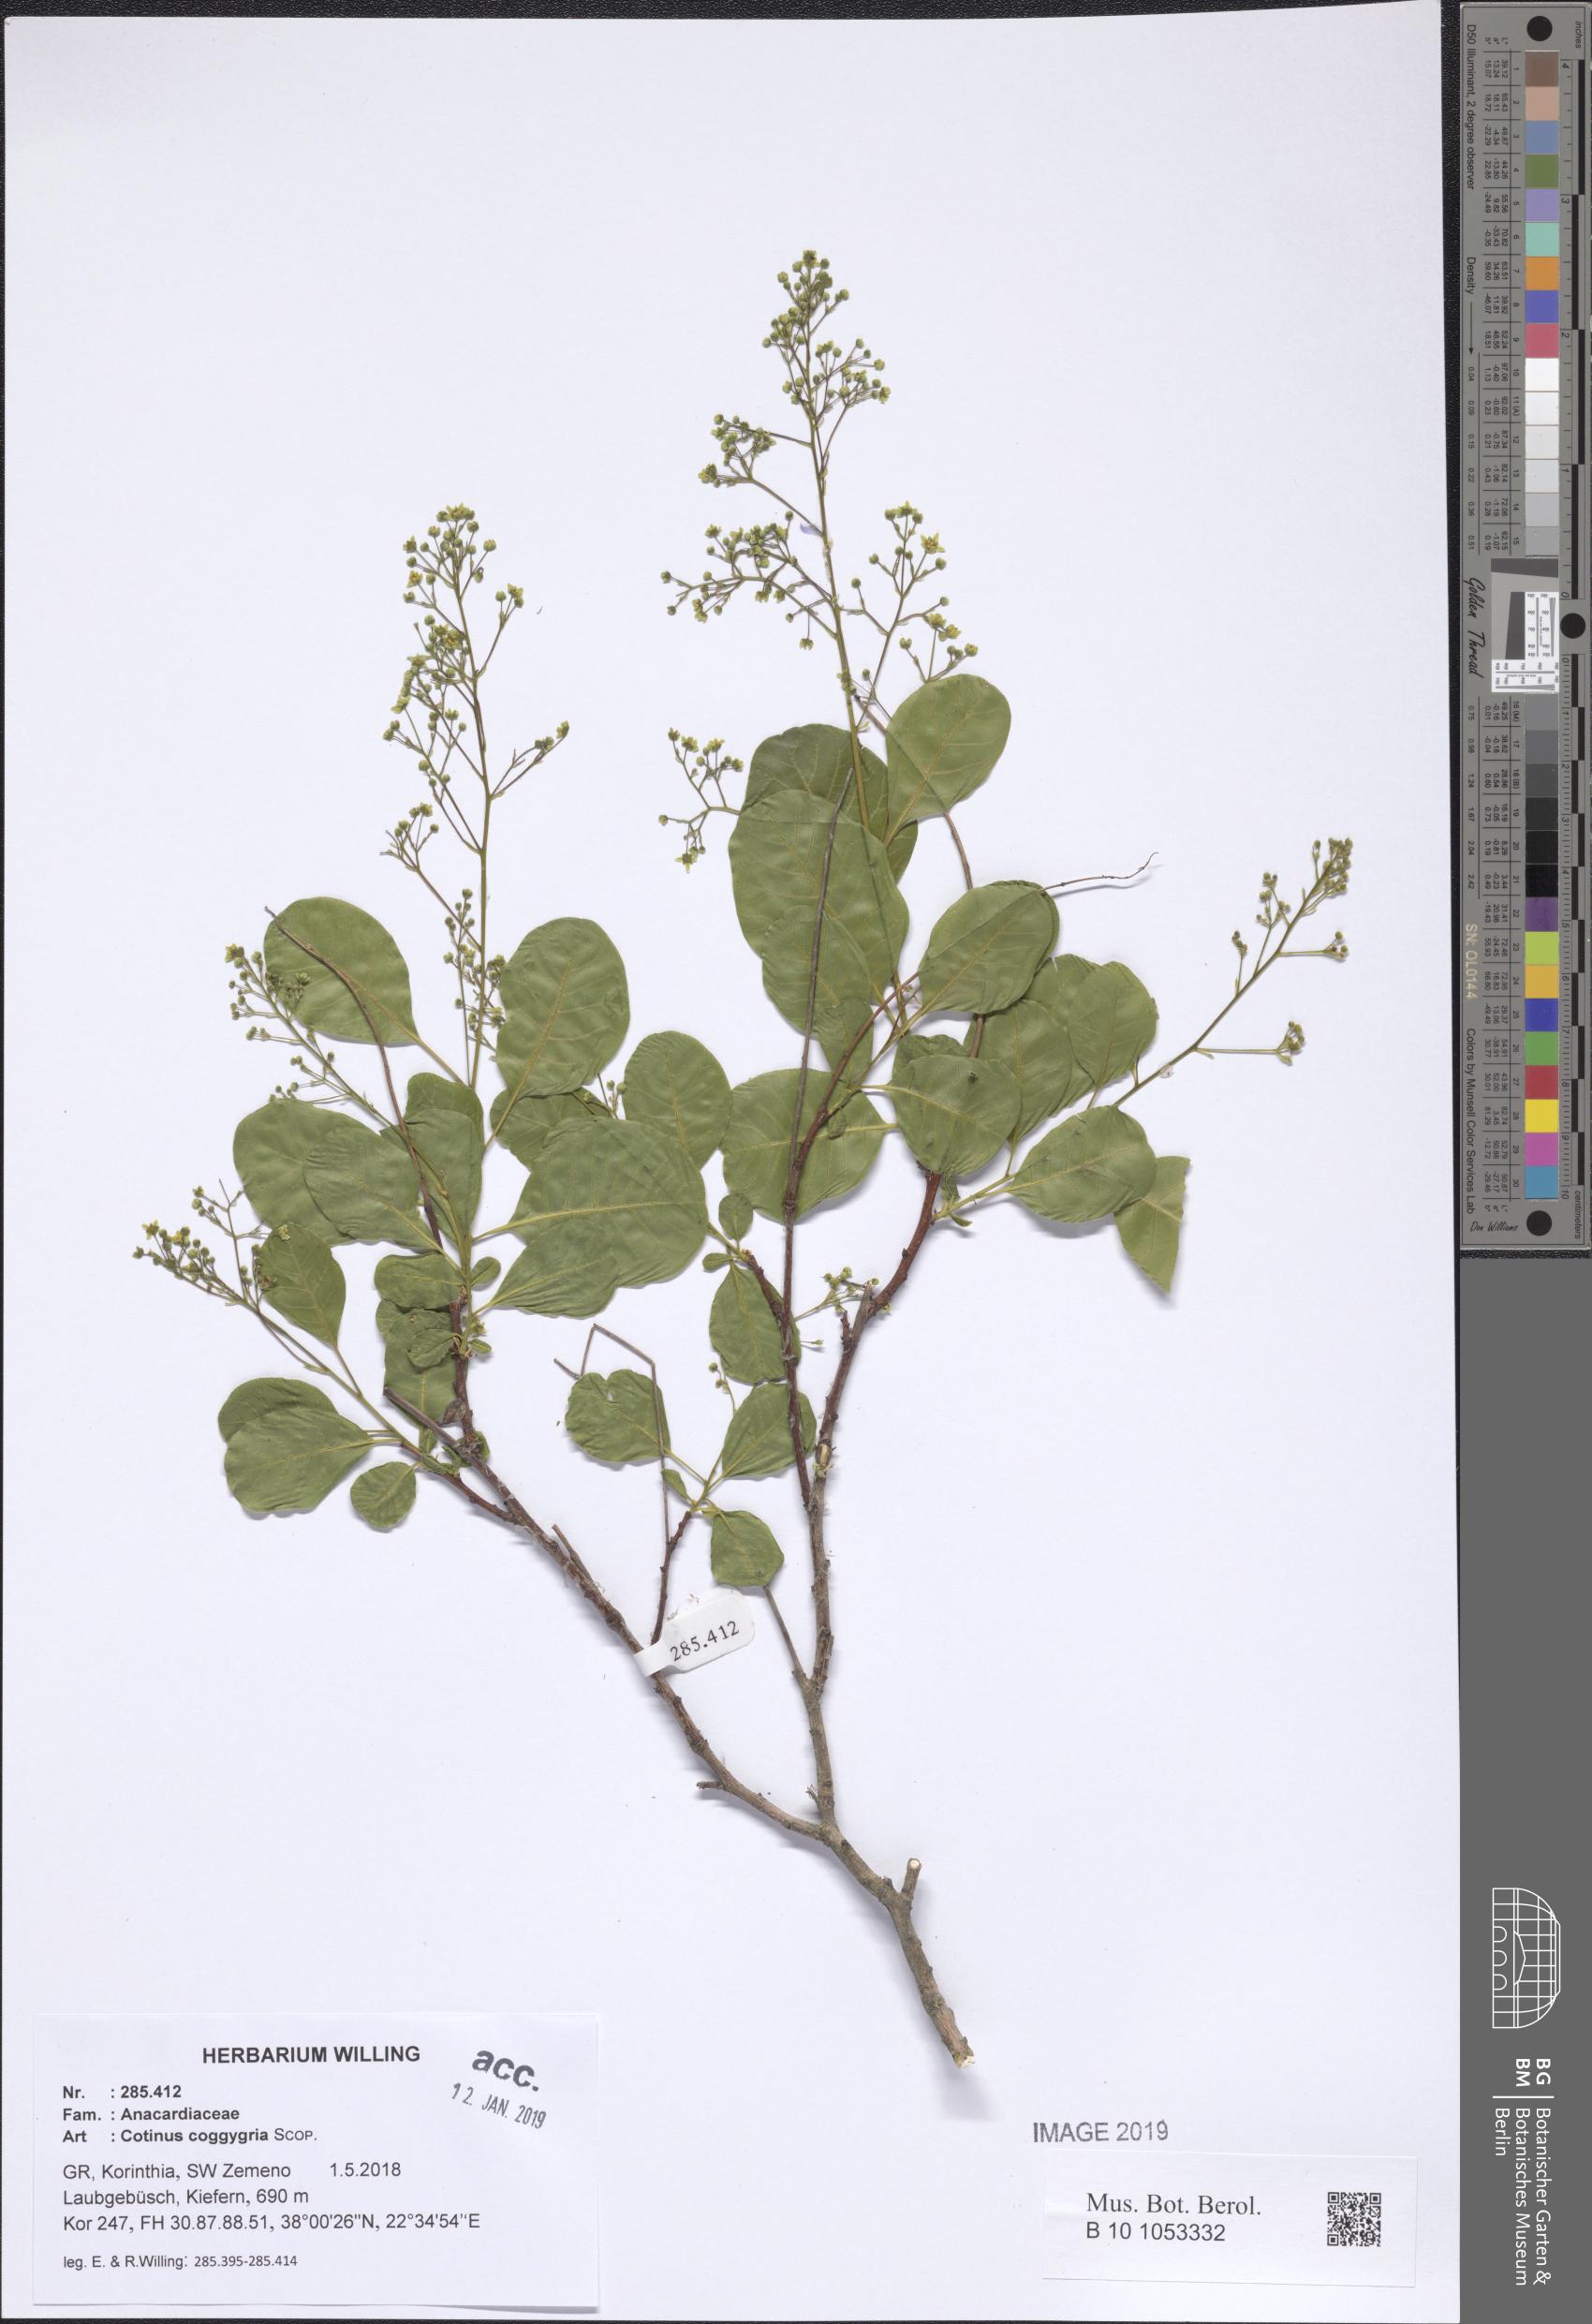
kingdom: Plantae
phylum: Tracheophyta
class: Magnoliopsida
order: Sapindales
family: Anacardiaceae
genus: Cotinus
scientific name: Cotinus coggygria
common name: Smoke-tree
